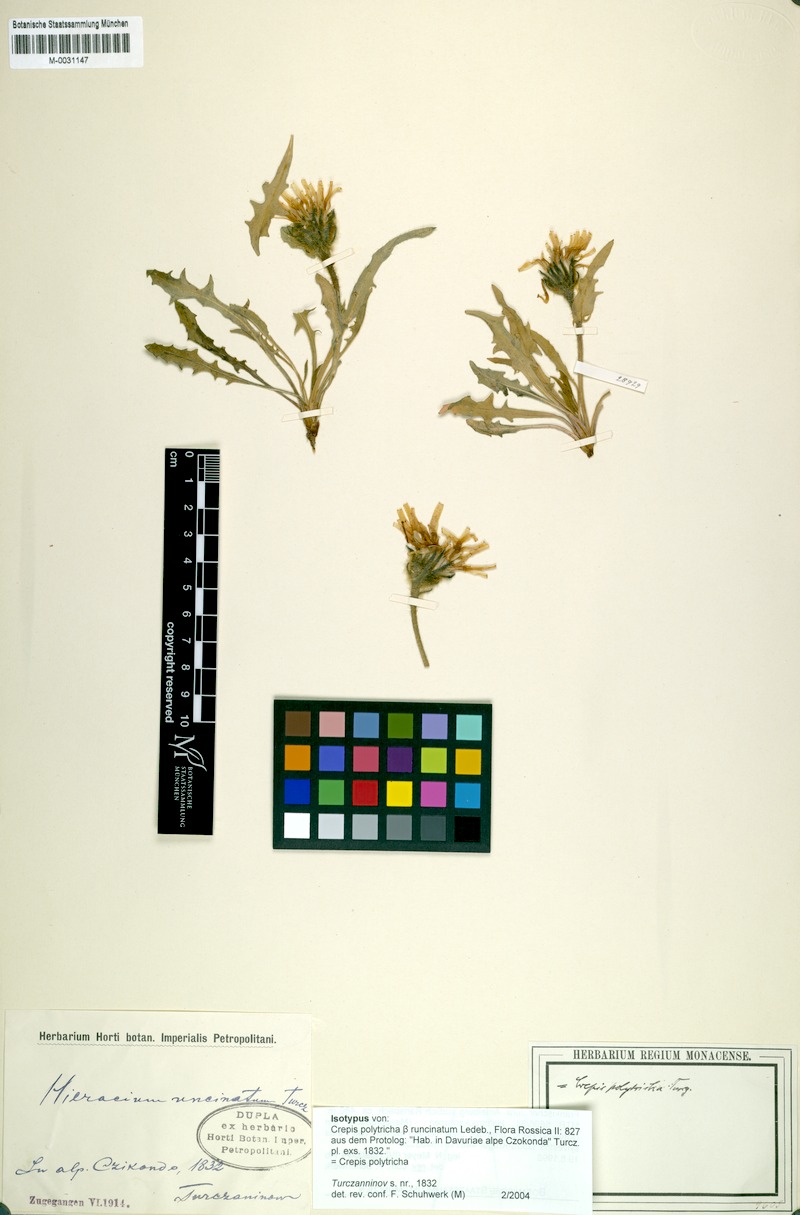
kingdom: Plantae
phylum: Tracheophyta
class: Magnoliopsida
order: Asterales
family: Asteraceae
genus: Crepis
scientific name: Crepis chrysantha
